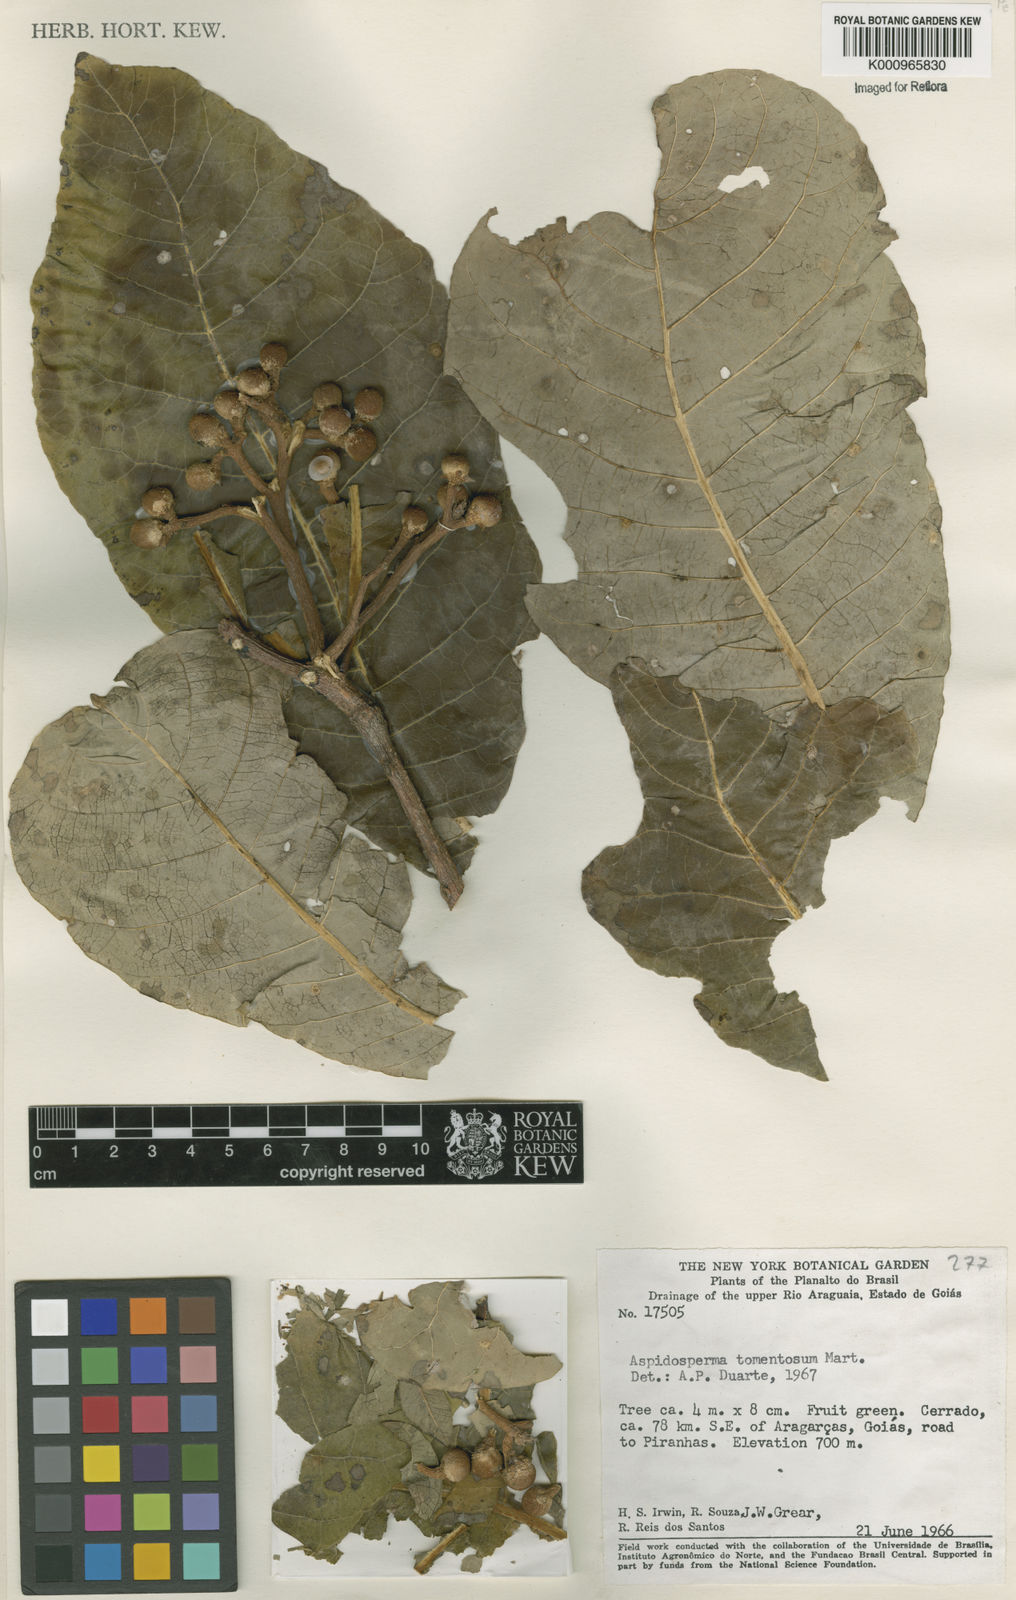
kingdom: Plantae
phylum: Tracheophyta
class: Magnoliopsida
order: Gentianales
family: Apocynaceae
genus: Aspidosperma
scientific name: Aspidosperma tomentosum
